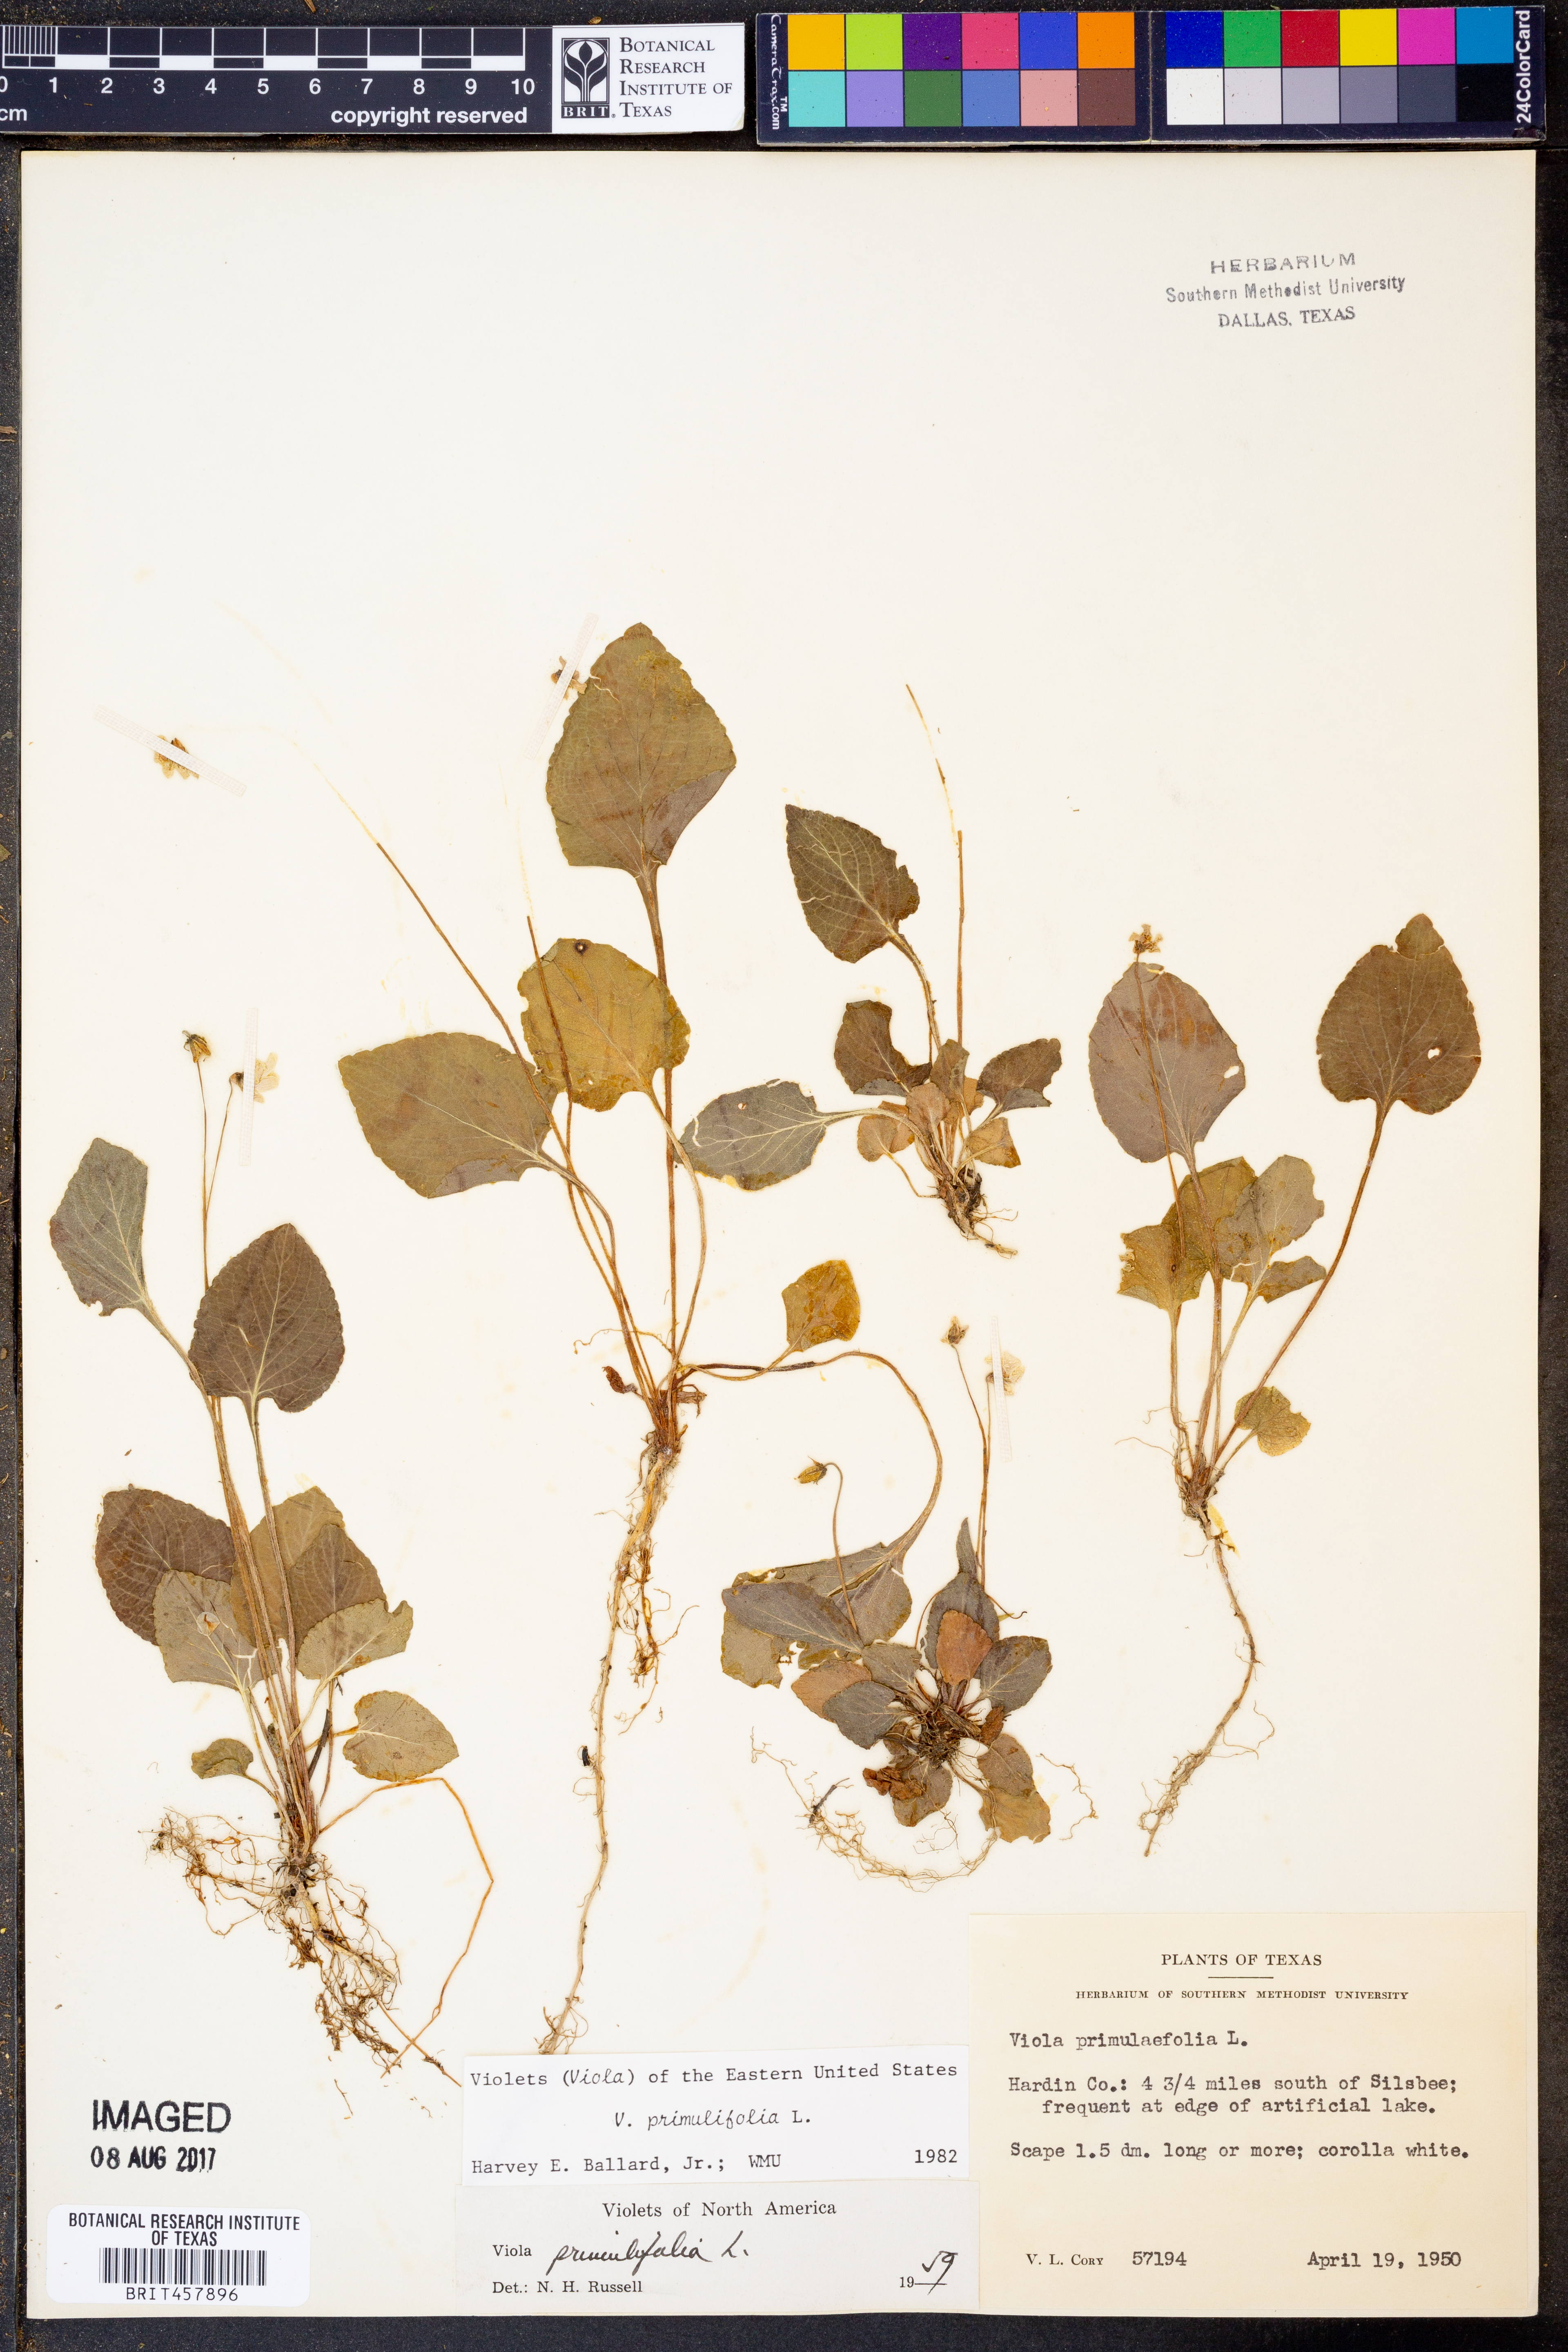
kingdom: Plantae
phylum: Tracheophyta
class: Magnoliopsida
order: Malpighiales
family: Violaceae
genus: Viola
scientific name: Viola primulifolia
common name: Primrose-leaf violet
